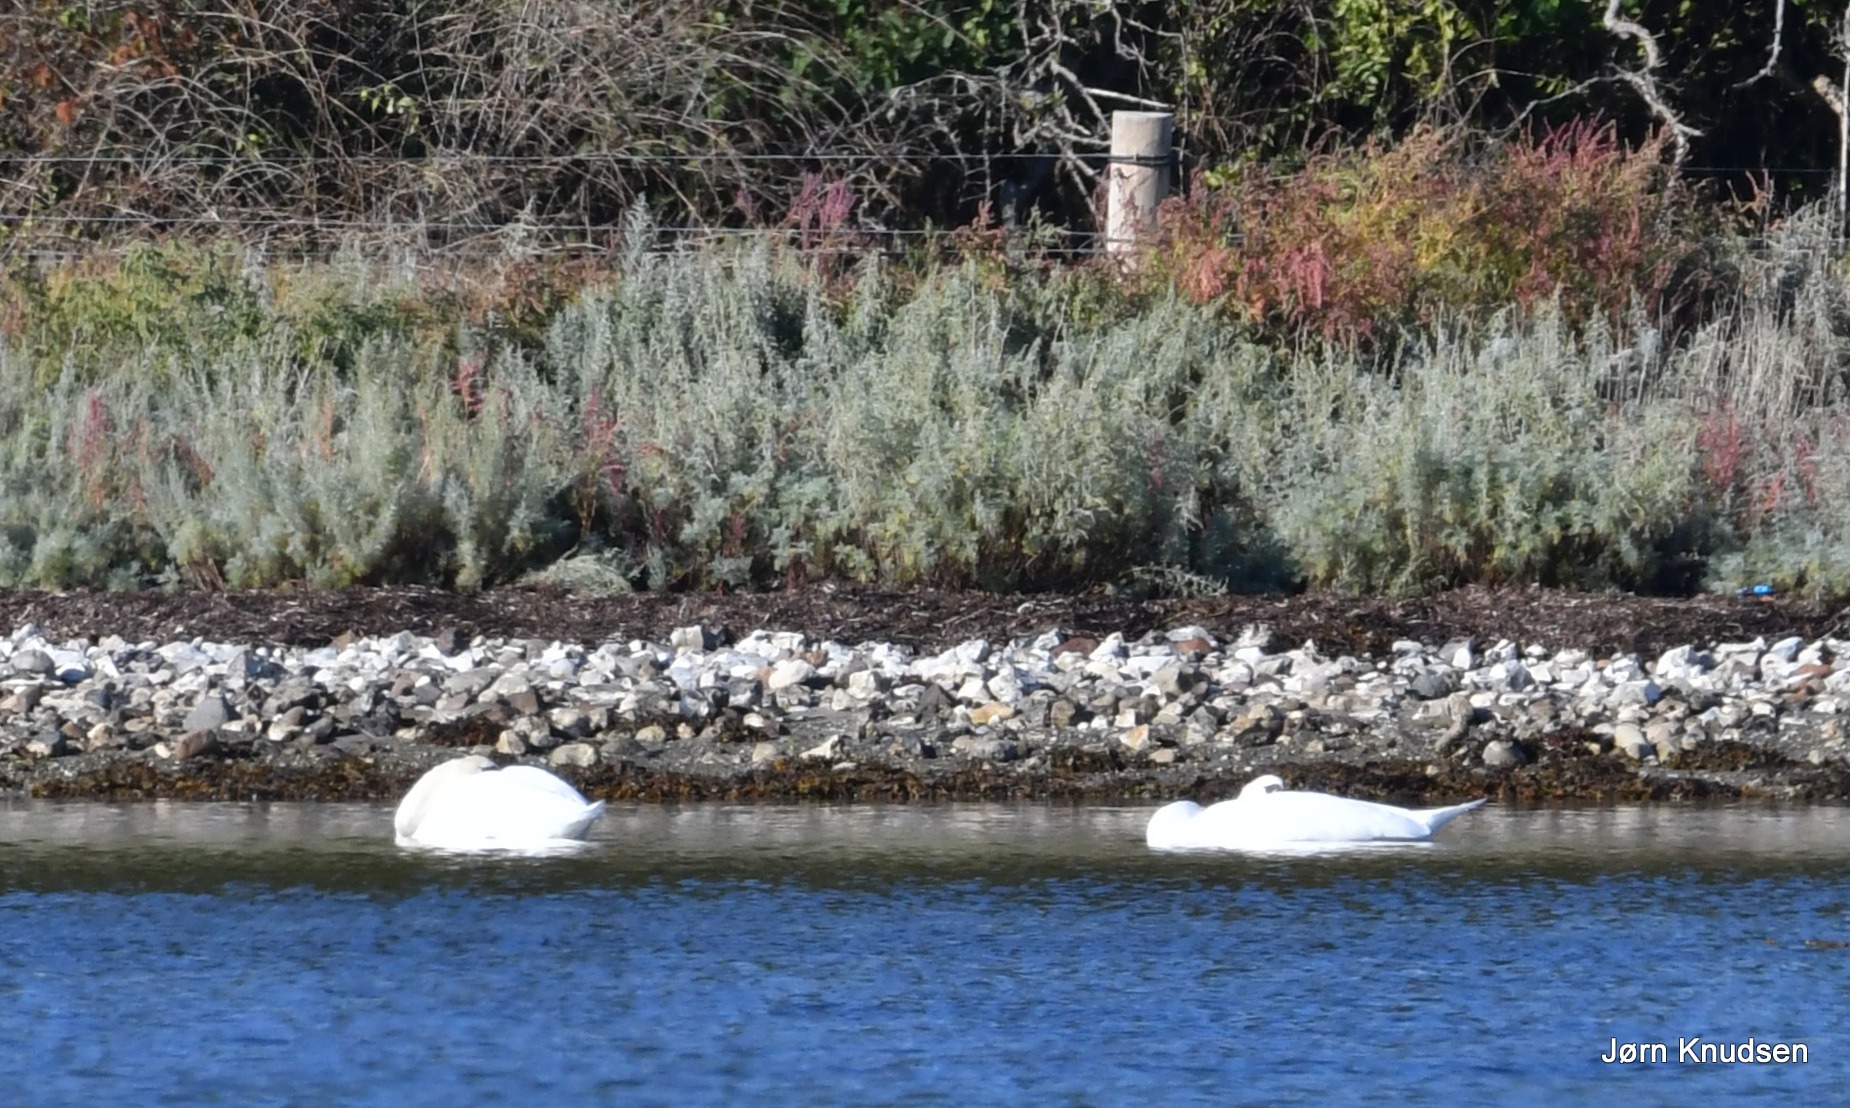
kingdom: Animalia
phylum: Chordata
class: Aves
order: Anseriformes
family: Anatidae
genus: Cygnus
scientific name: Cygnus olor
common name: Knopsvane
